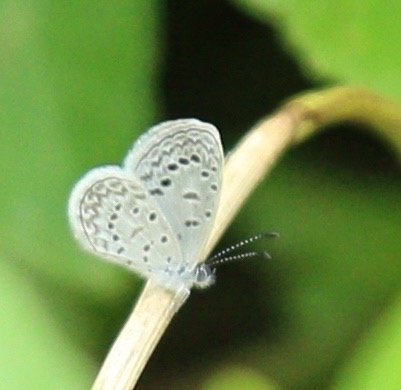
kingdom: Animalia
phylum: Arthropoda
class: Insecta
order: Lepidoptera
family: Lycaenidae
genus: Lycaena
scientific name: Lycaena cyna
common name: Cyna Blue
